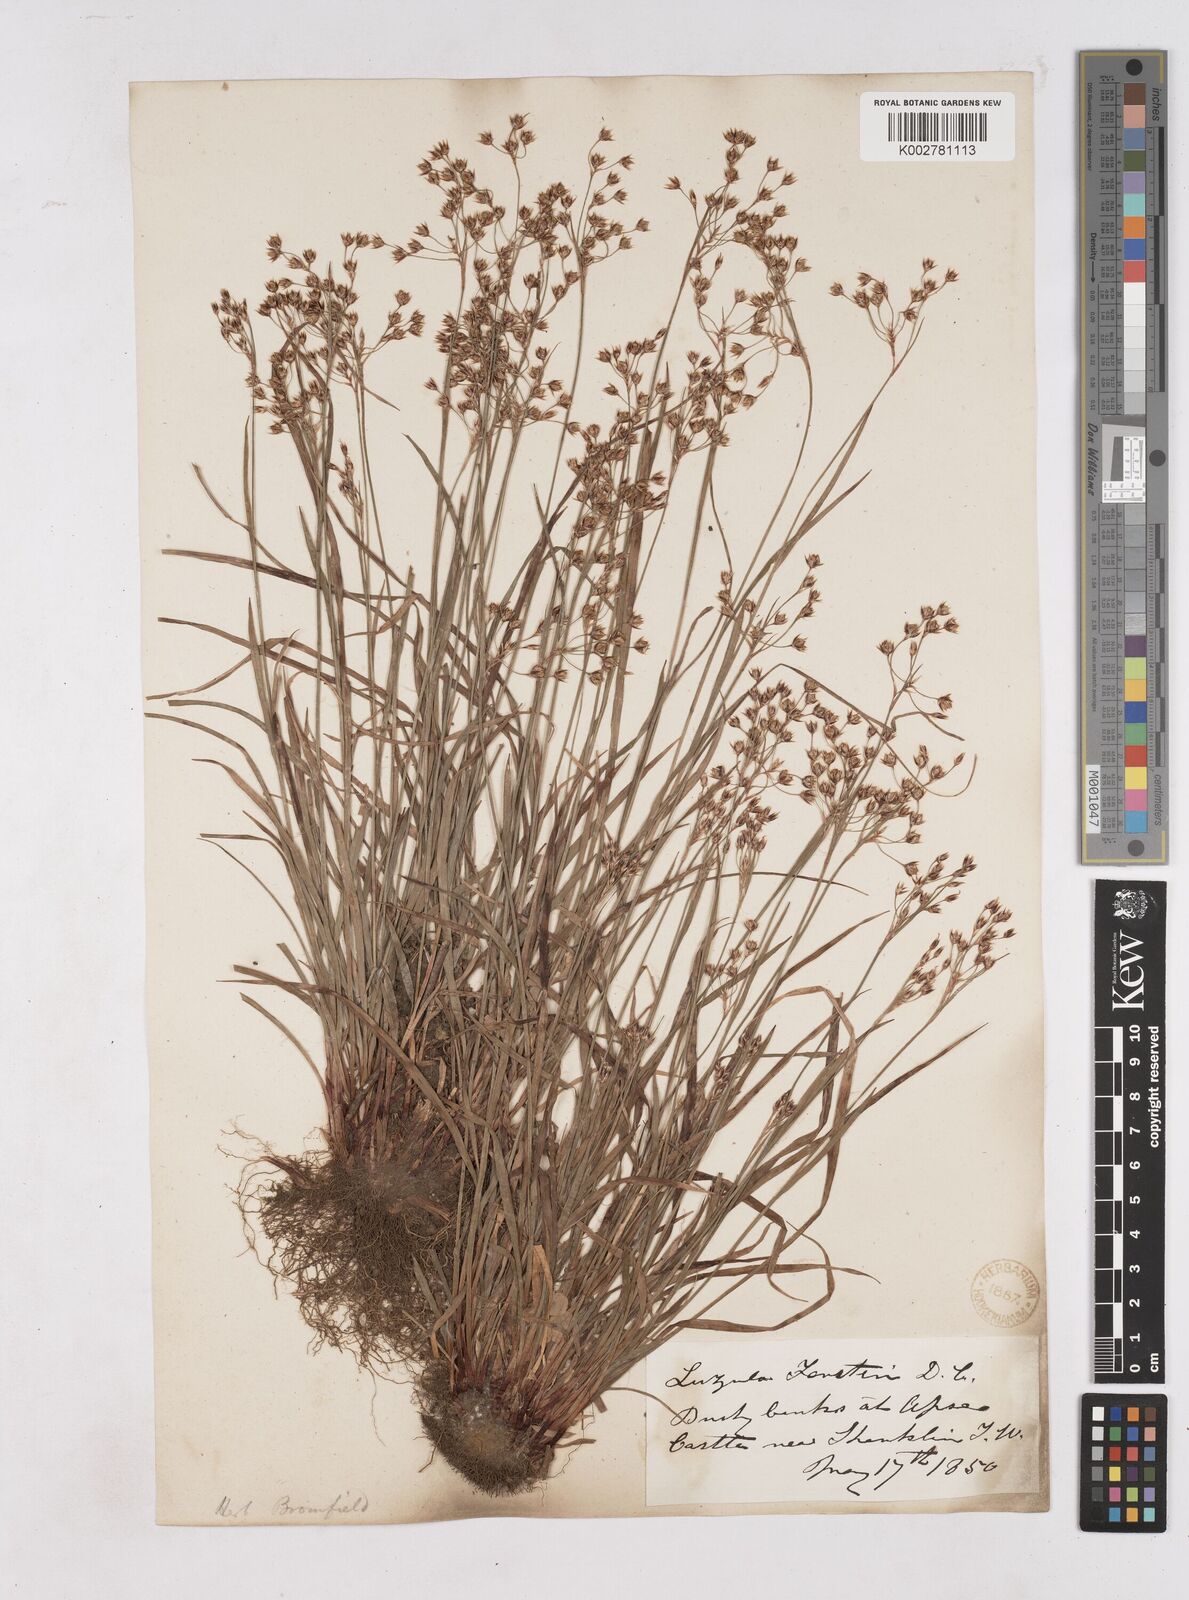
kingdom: Plantae
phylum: Tracheophyta
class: Liliopsida
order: Poales
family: Juncaceae
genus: Luzula
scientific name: Luzula forsteri
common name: Southern wood-rush
